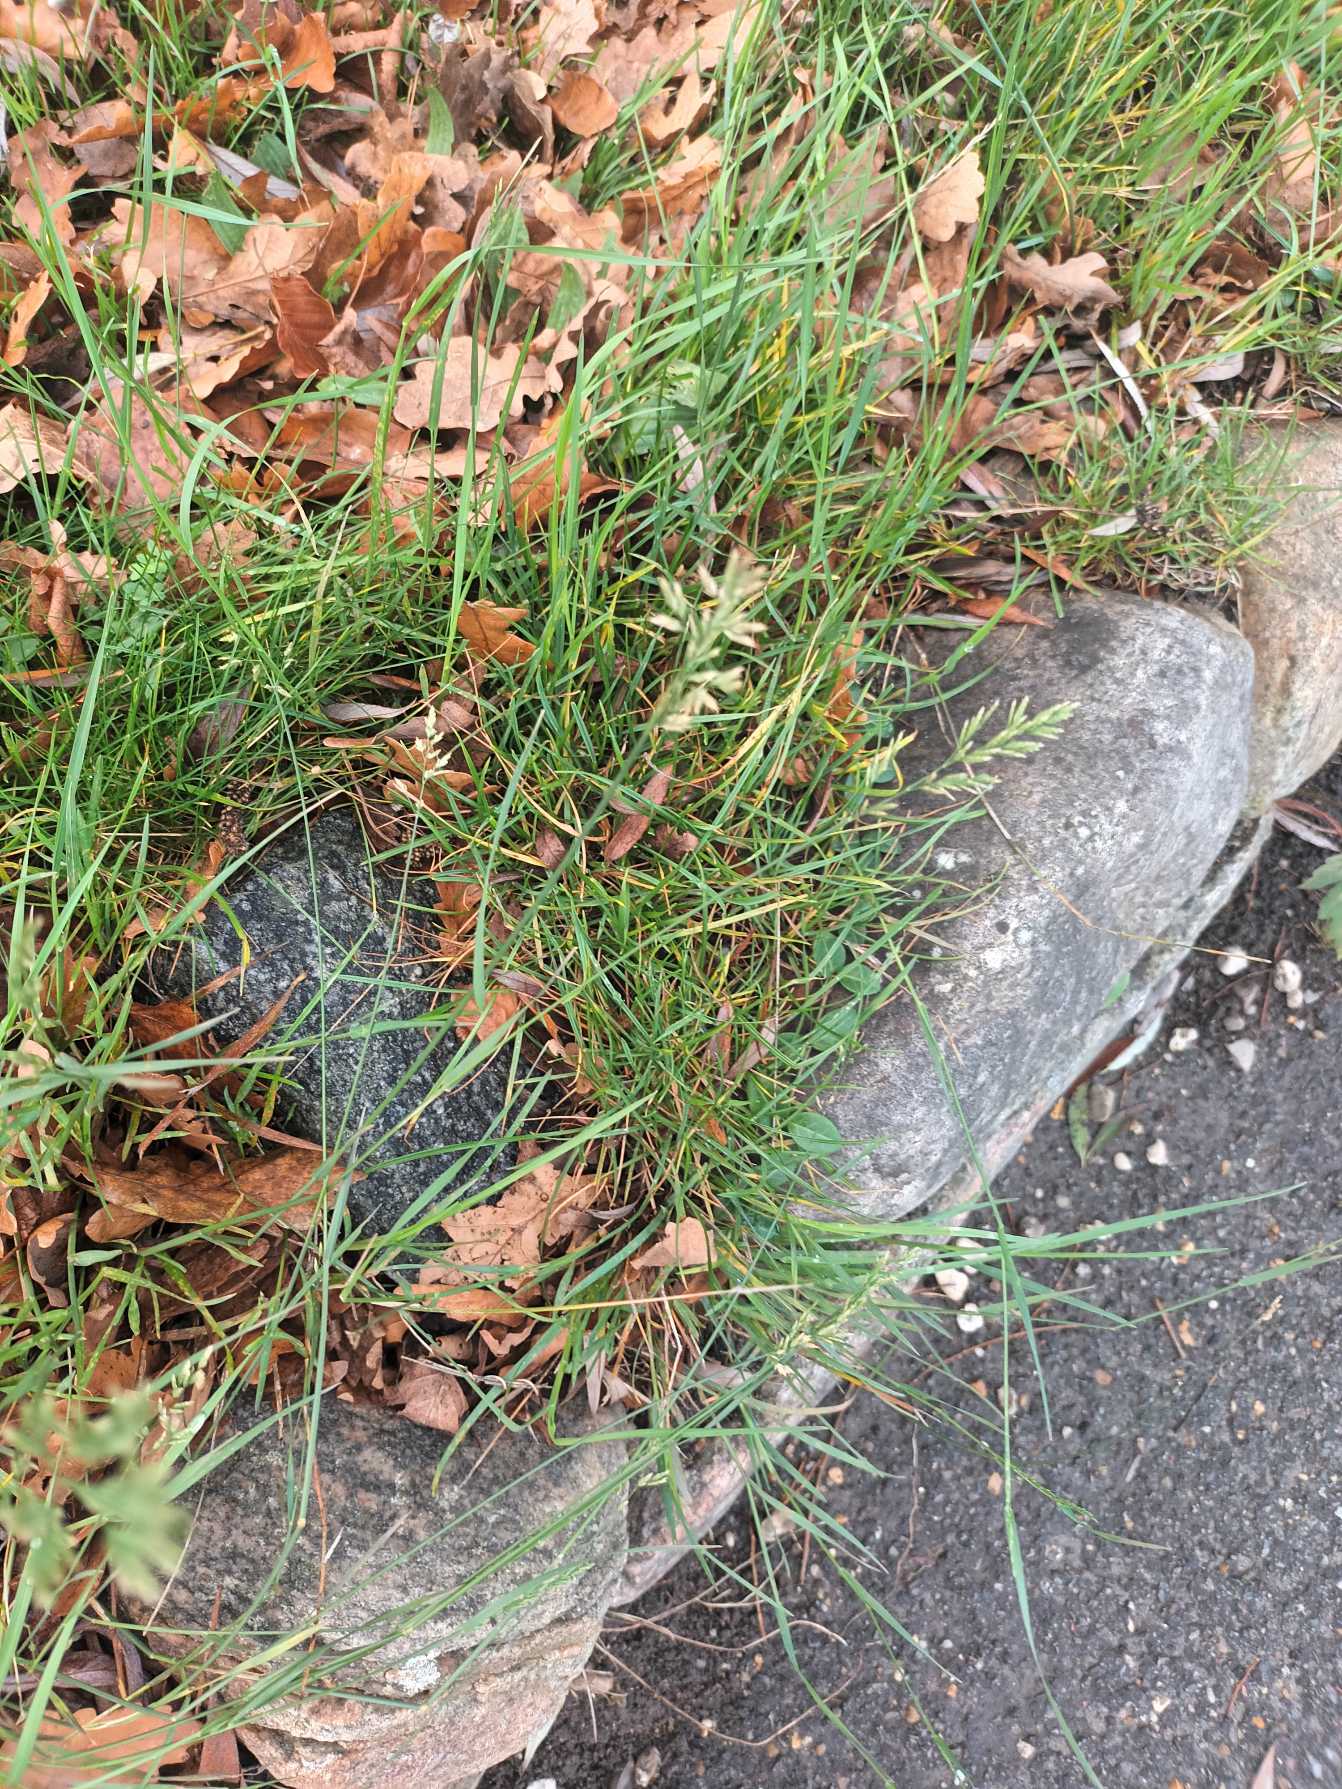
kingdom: Plantae
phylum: Tracheophyta
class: Liliopsida
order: Poales
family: Poaceae
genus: Poa
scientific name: Poa compressa
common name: Fladstrået rapgræs
